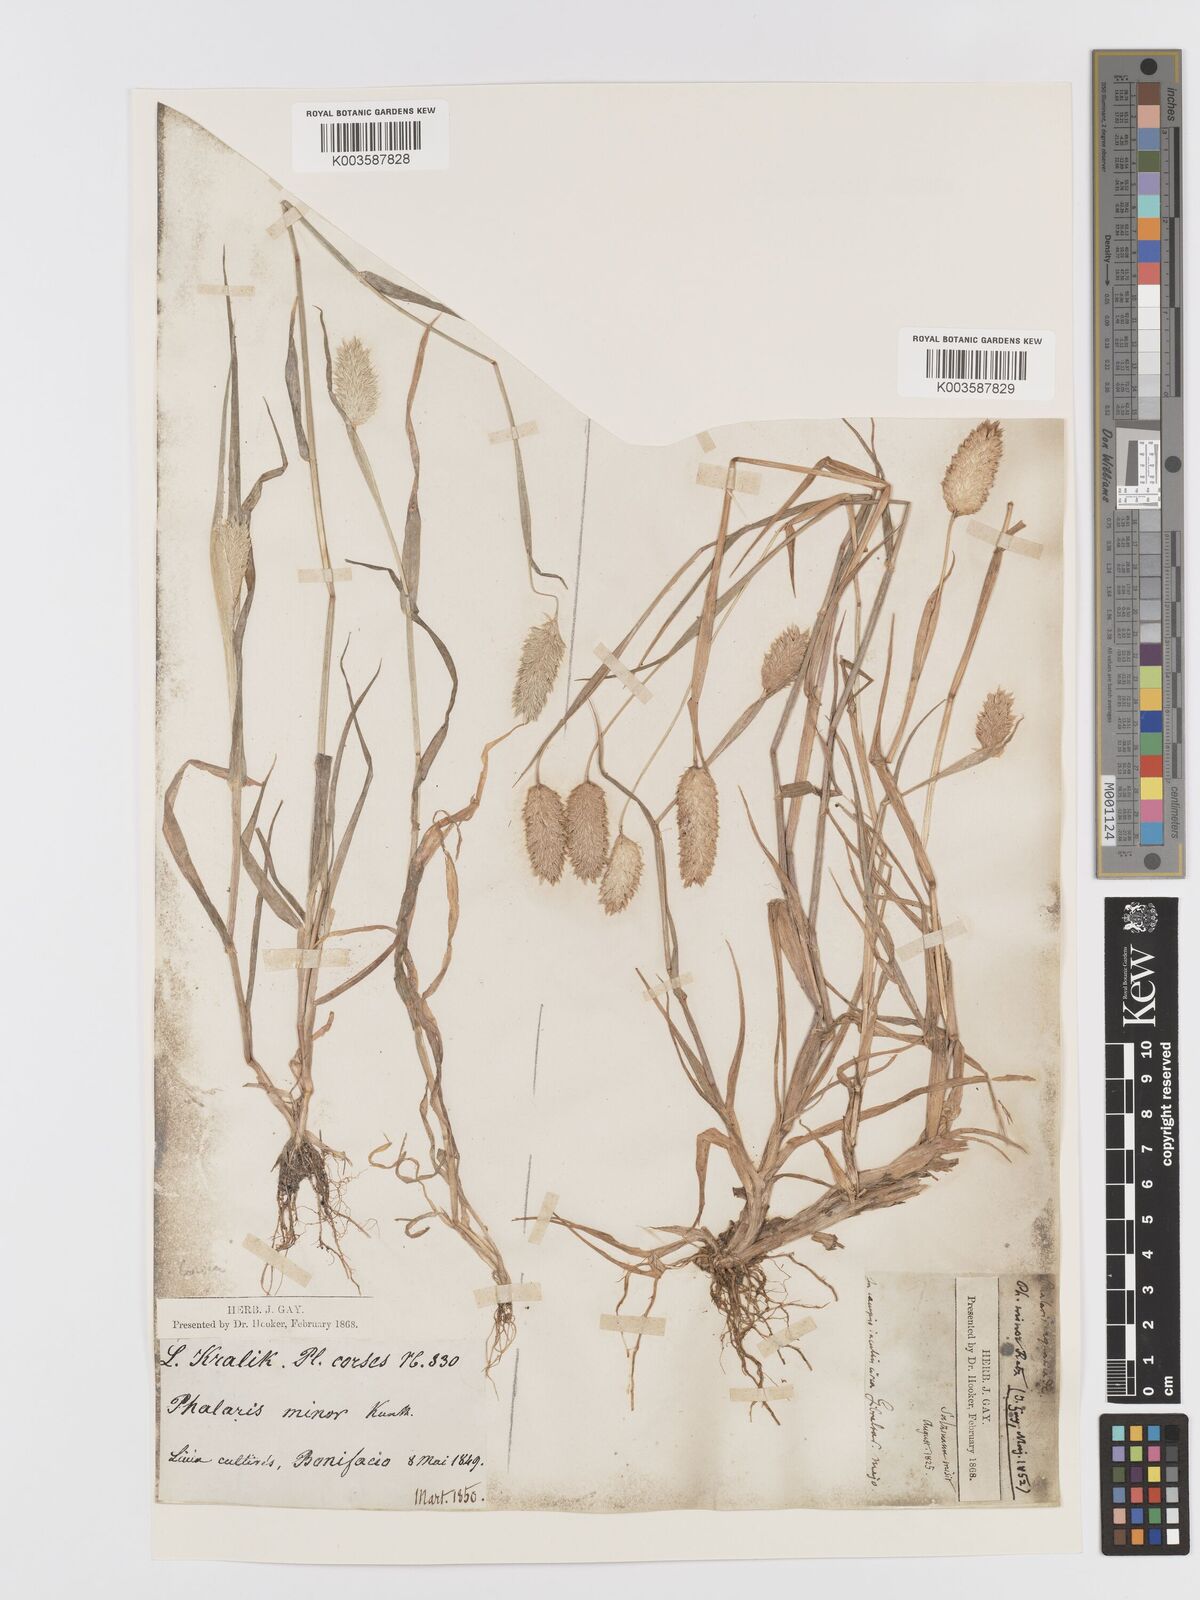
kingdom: Plantae
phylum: Tracheophyta
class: Liliopsida
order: Poales
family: Poaceae
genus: Phalaris
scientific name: Phalaris minor
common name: Littleseed canarygrass
